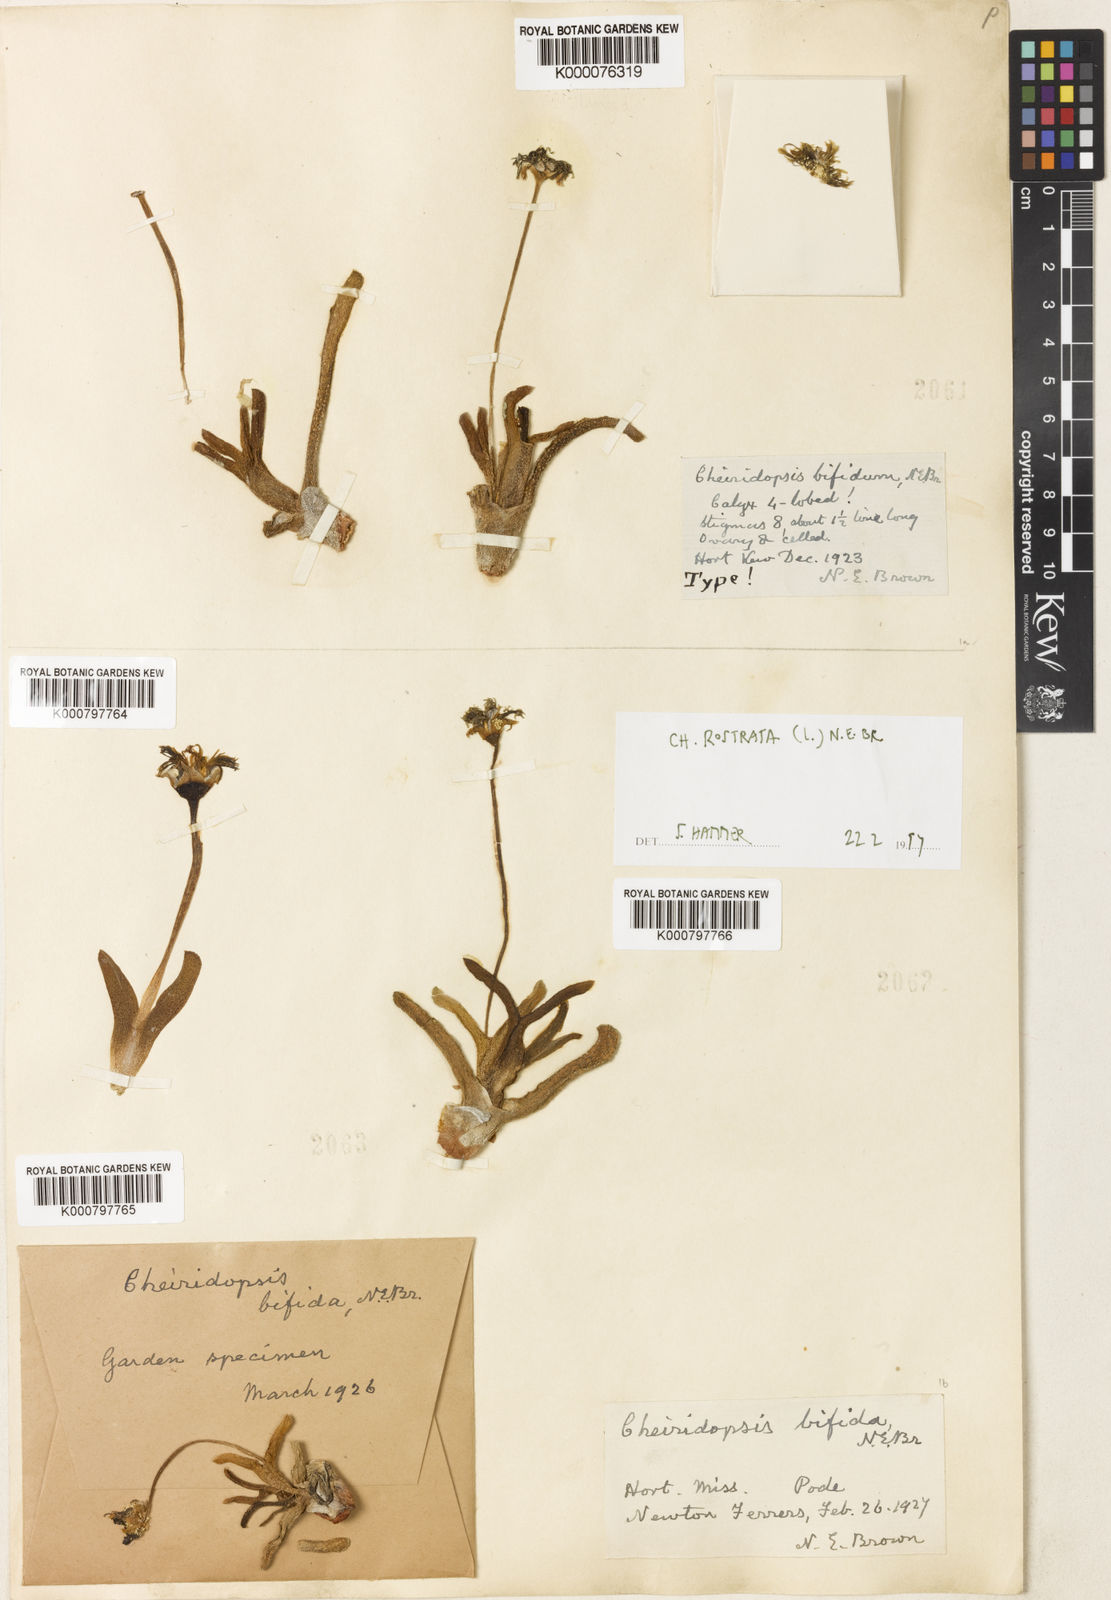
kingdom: Plantae
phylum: Tracheophyta
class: Magnoliopsida
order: Caryophyllales
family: Aizoaceae
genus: Cheiridopsis
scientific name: Cheiridopsis rostrata
